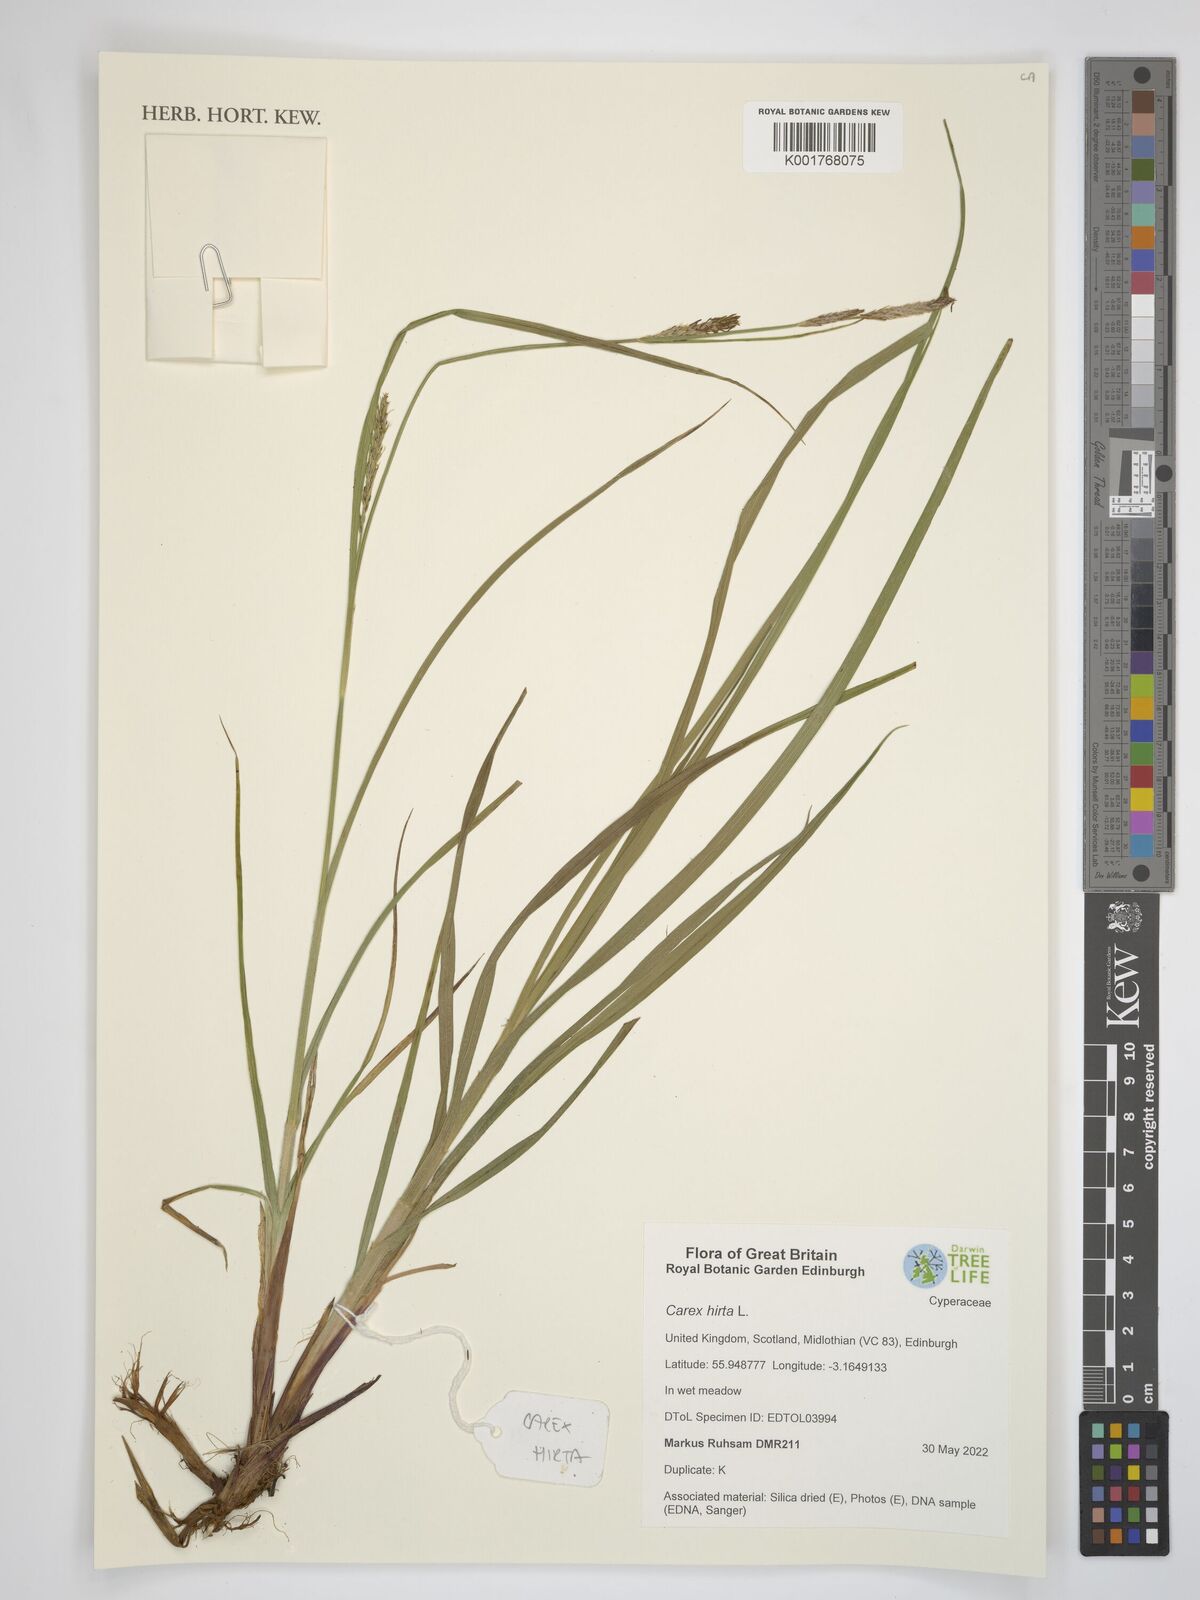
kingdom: Plantae
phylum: Tracheophyta
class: Liliopsida
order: Poales
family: Cyperaceae
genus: Carex
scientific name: Carex hirta
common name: Hairy sedge
